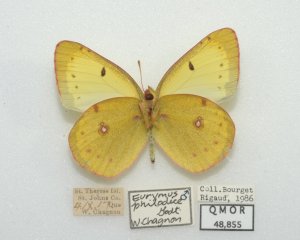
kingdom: Animalia
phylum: Arthropoda
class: Insecta
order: Lepidoptera
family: Pieridae
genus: Colias
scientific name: Colias philodice
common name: Clouded Sulphur
